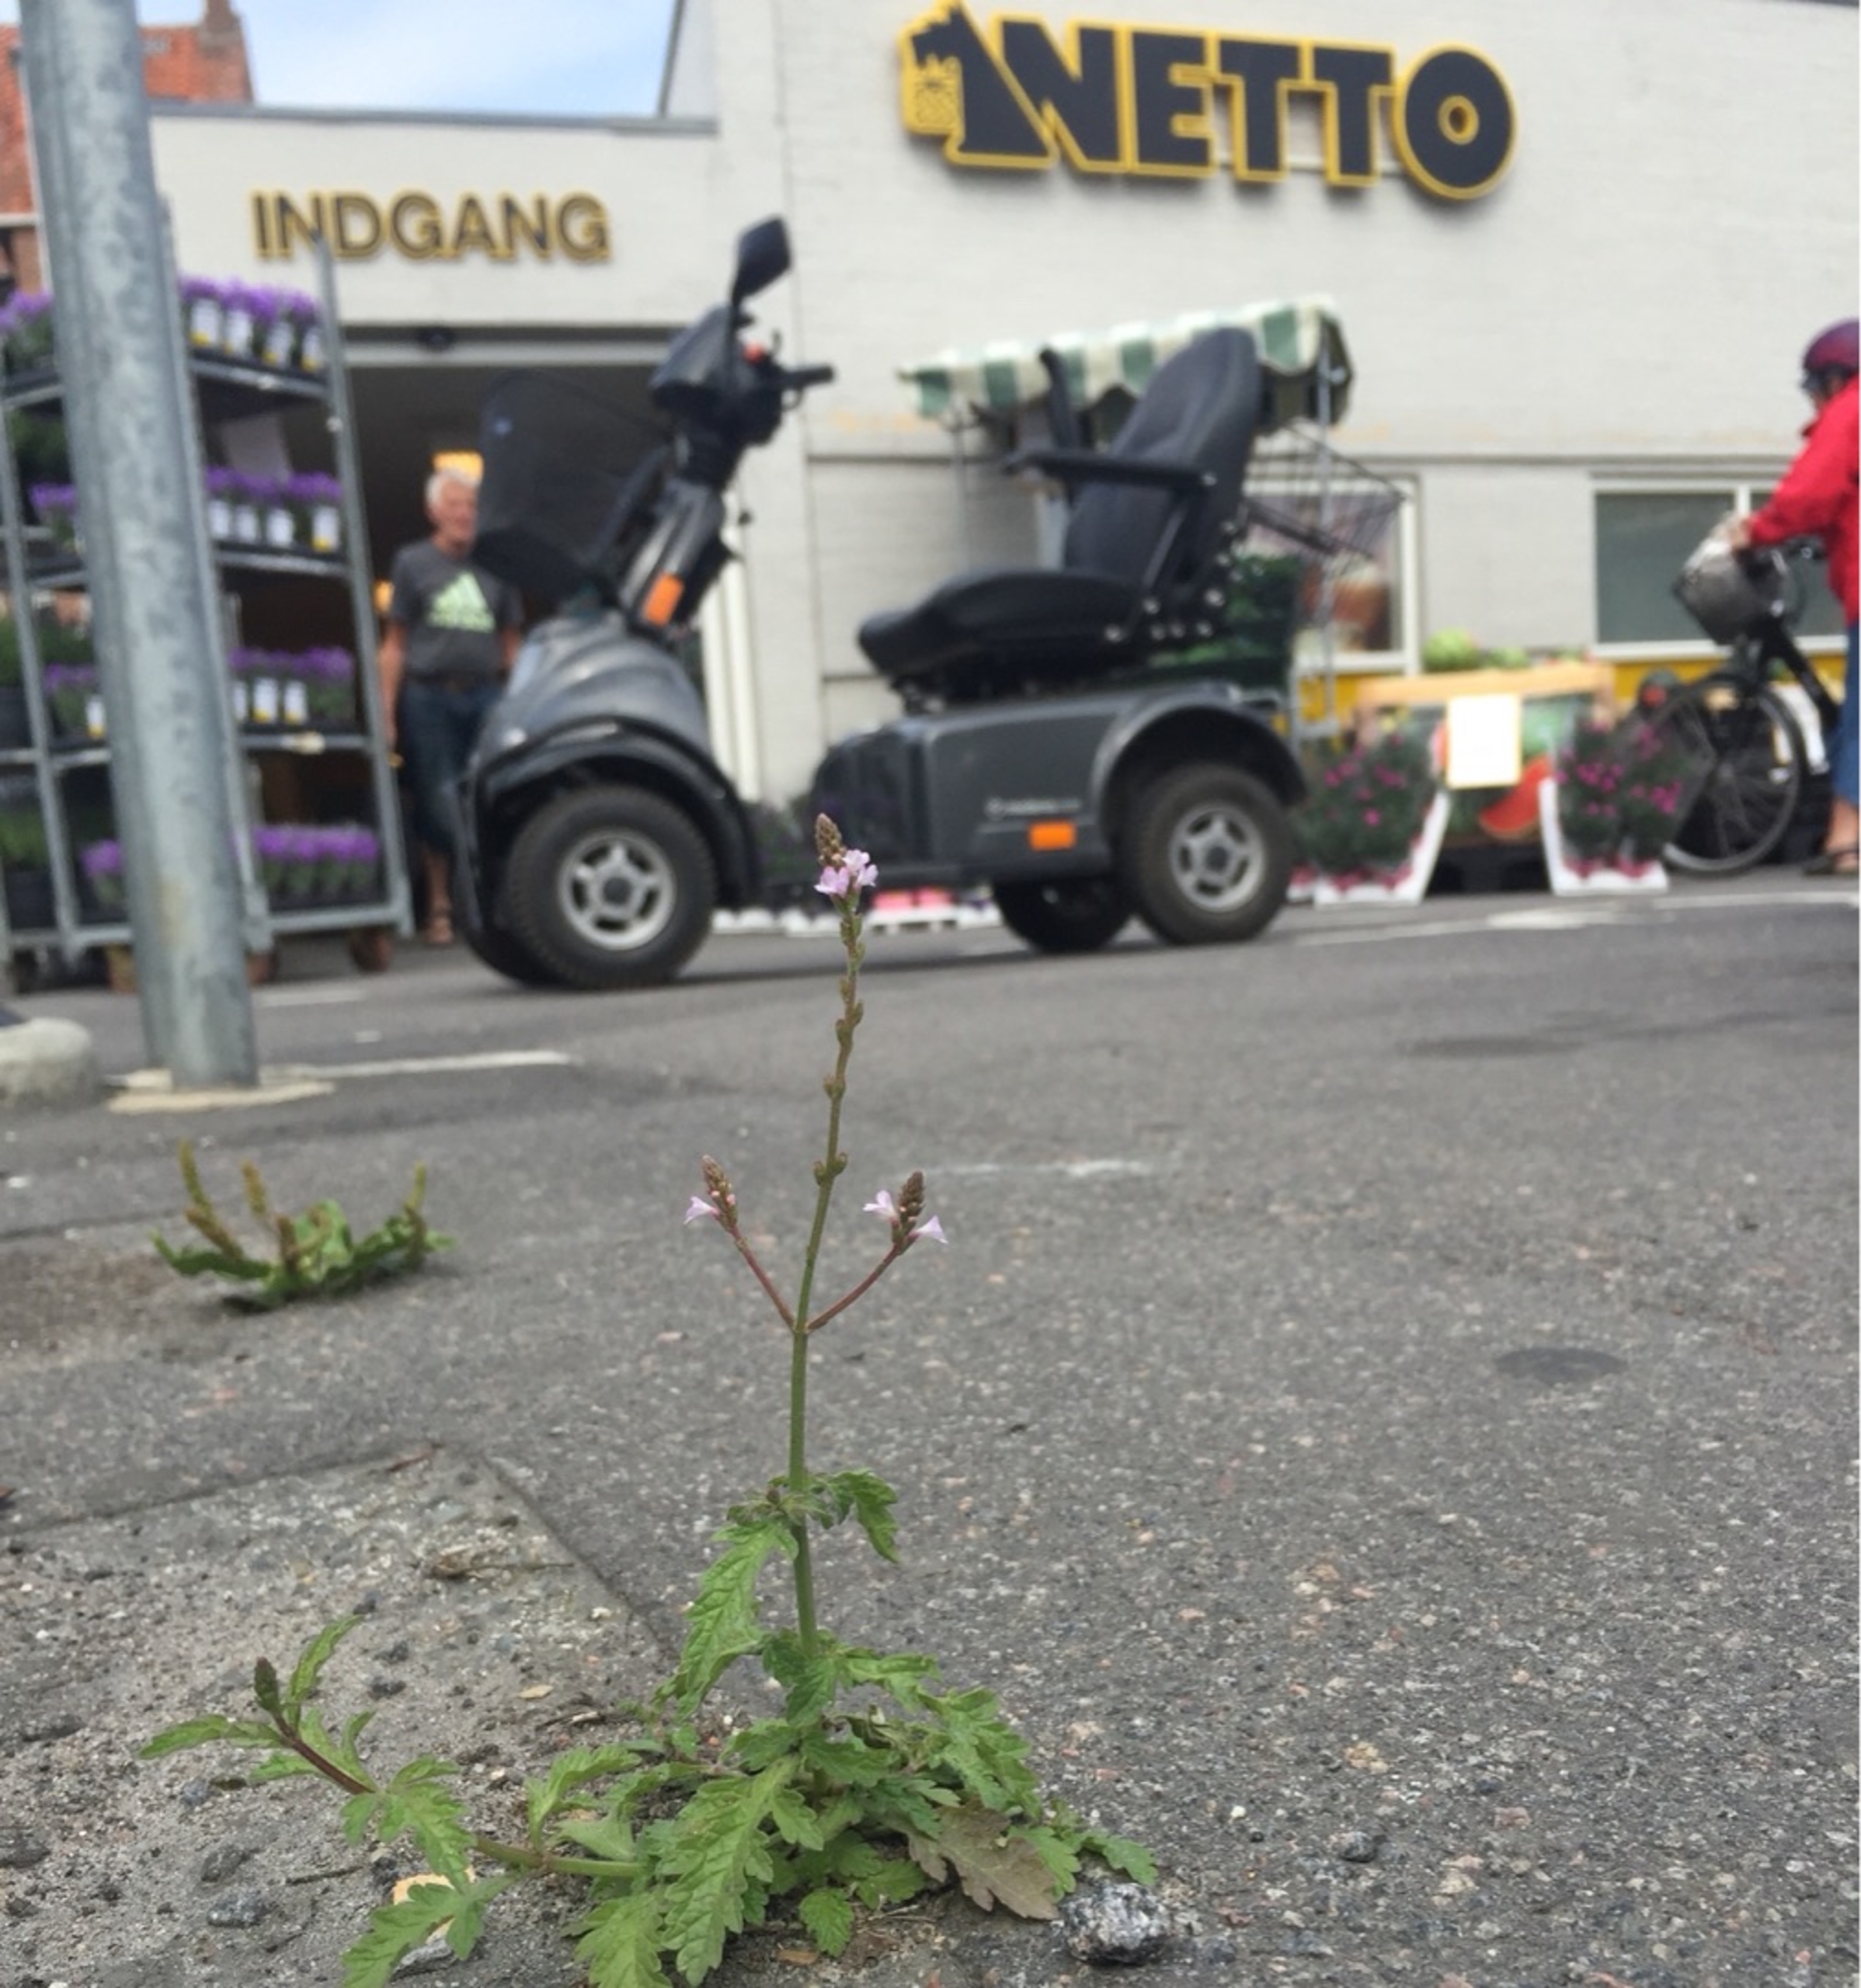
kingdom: Plantae
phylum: Tracheophyta
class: Magnoliopsida
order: Lamiales
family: Verbenaceae
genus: Verbena
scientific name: Verbena officinalis
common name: Læge-jernurt
